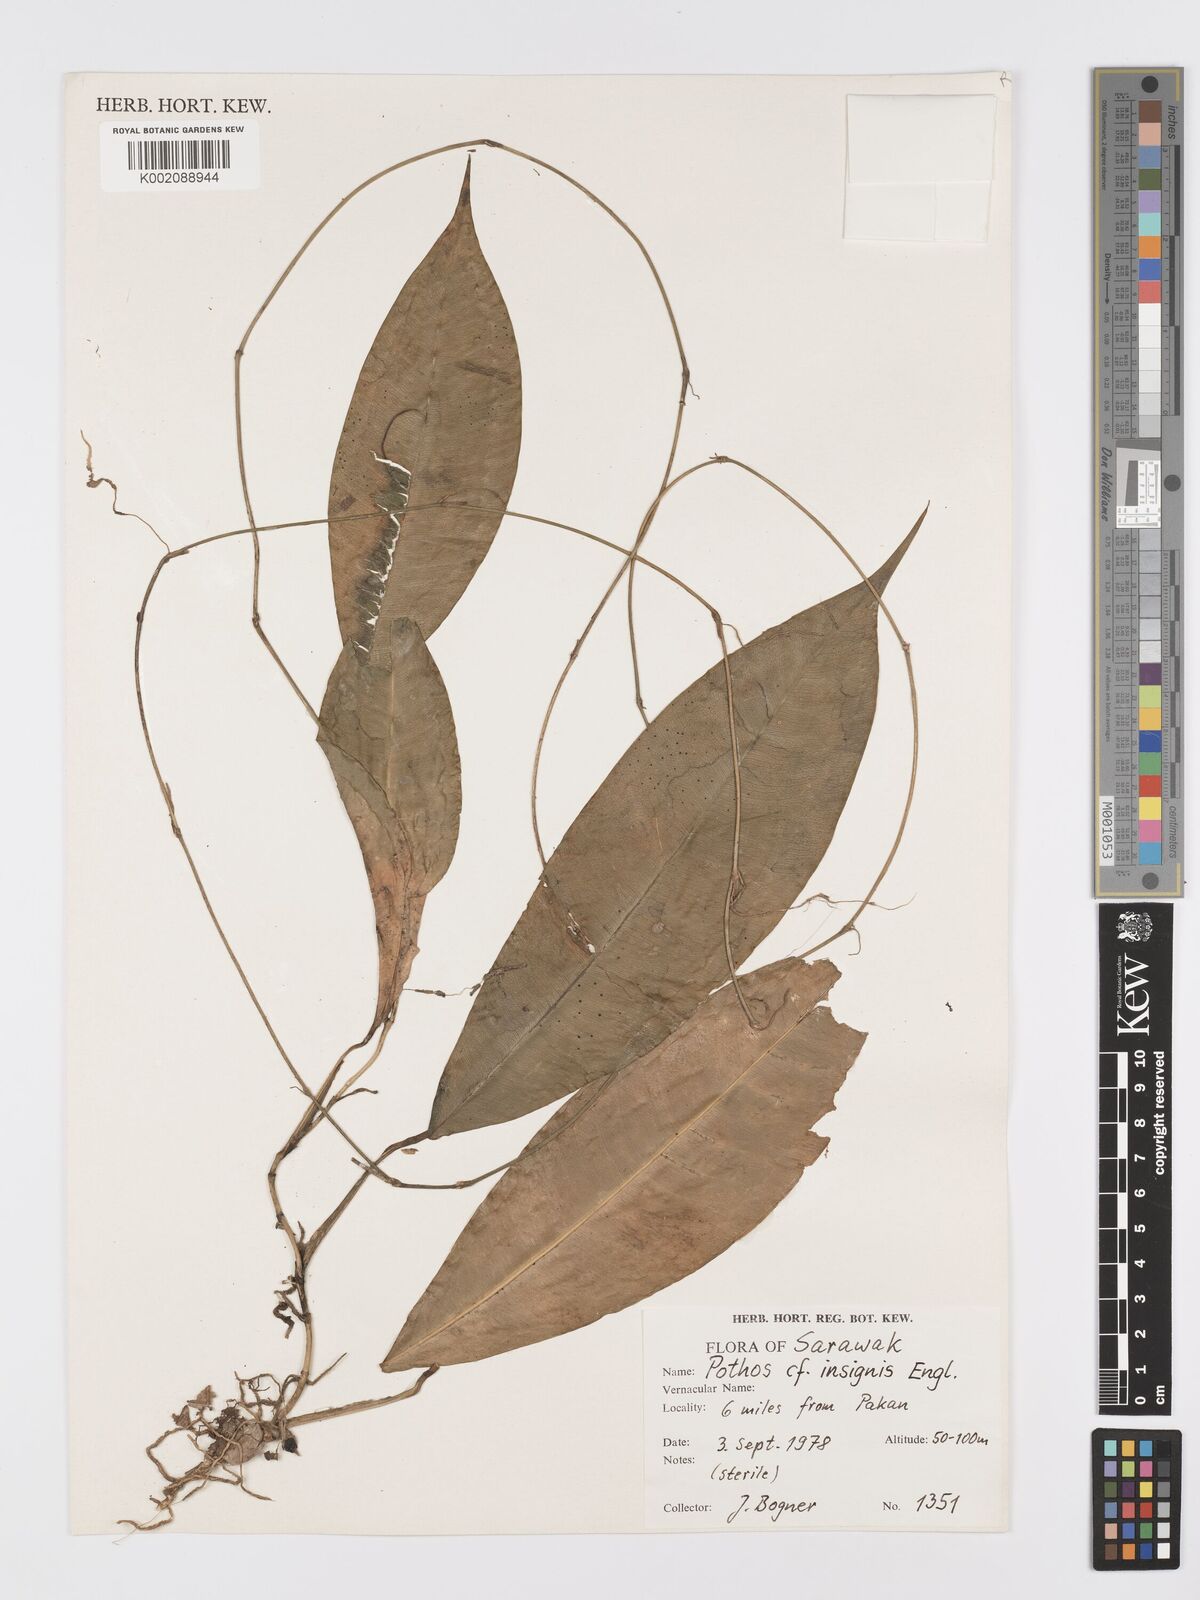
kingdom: Plantae
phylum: Tracheophyta
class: Liliopsida
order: Alismatales
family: Araceae
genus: Pothos
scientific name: Pothos insignis
